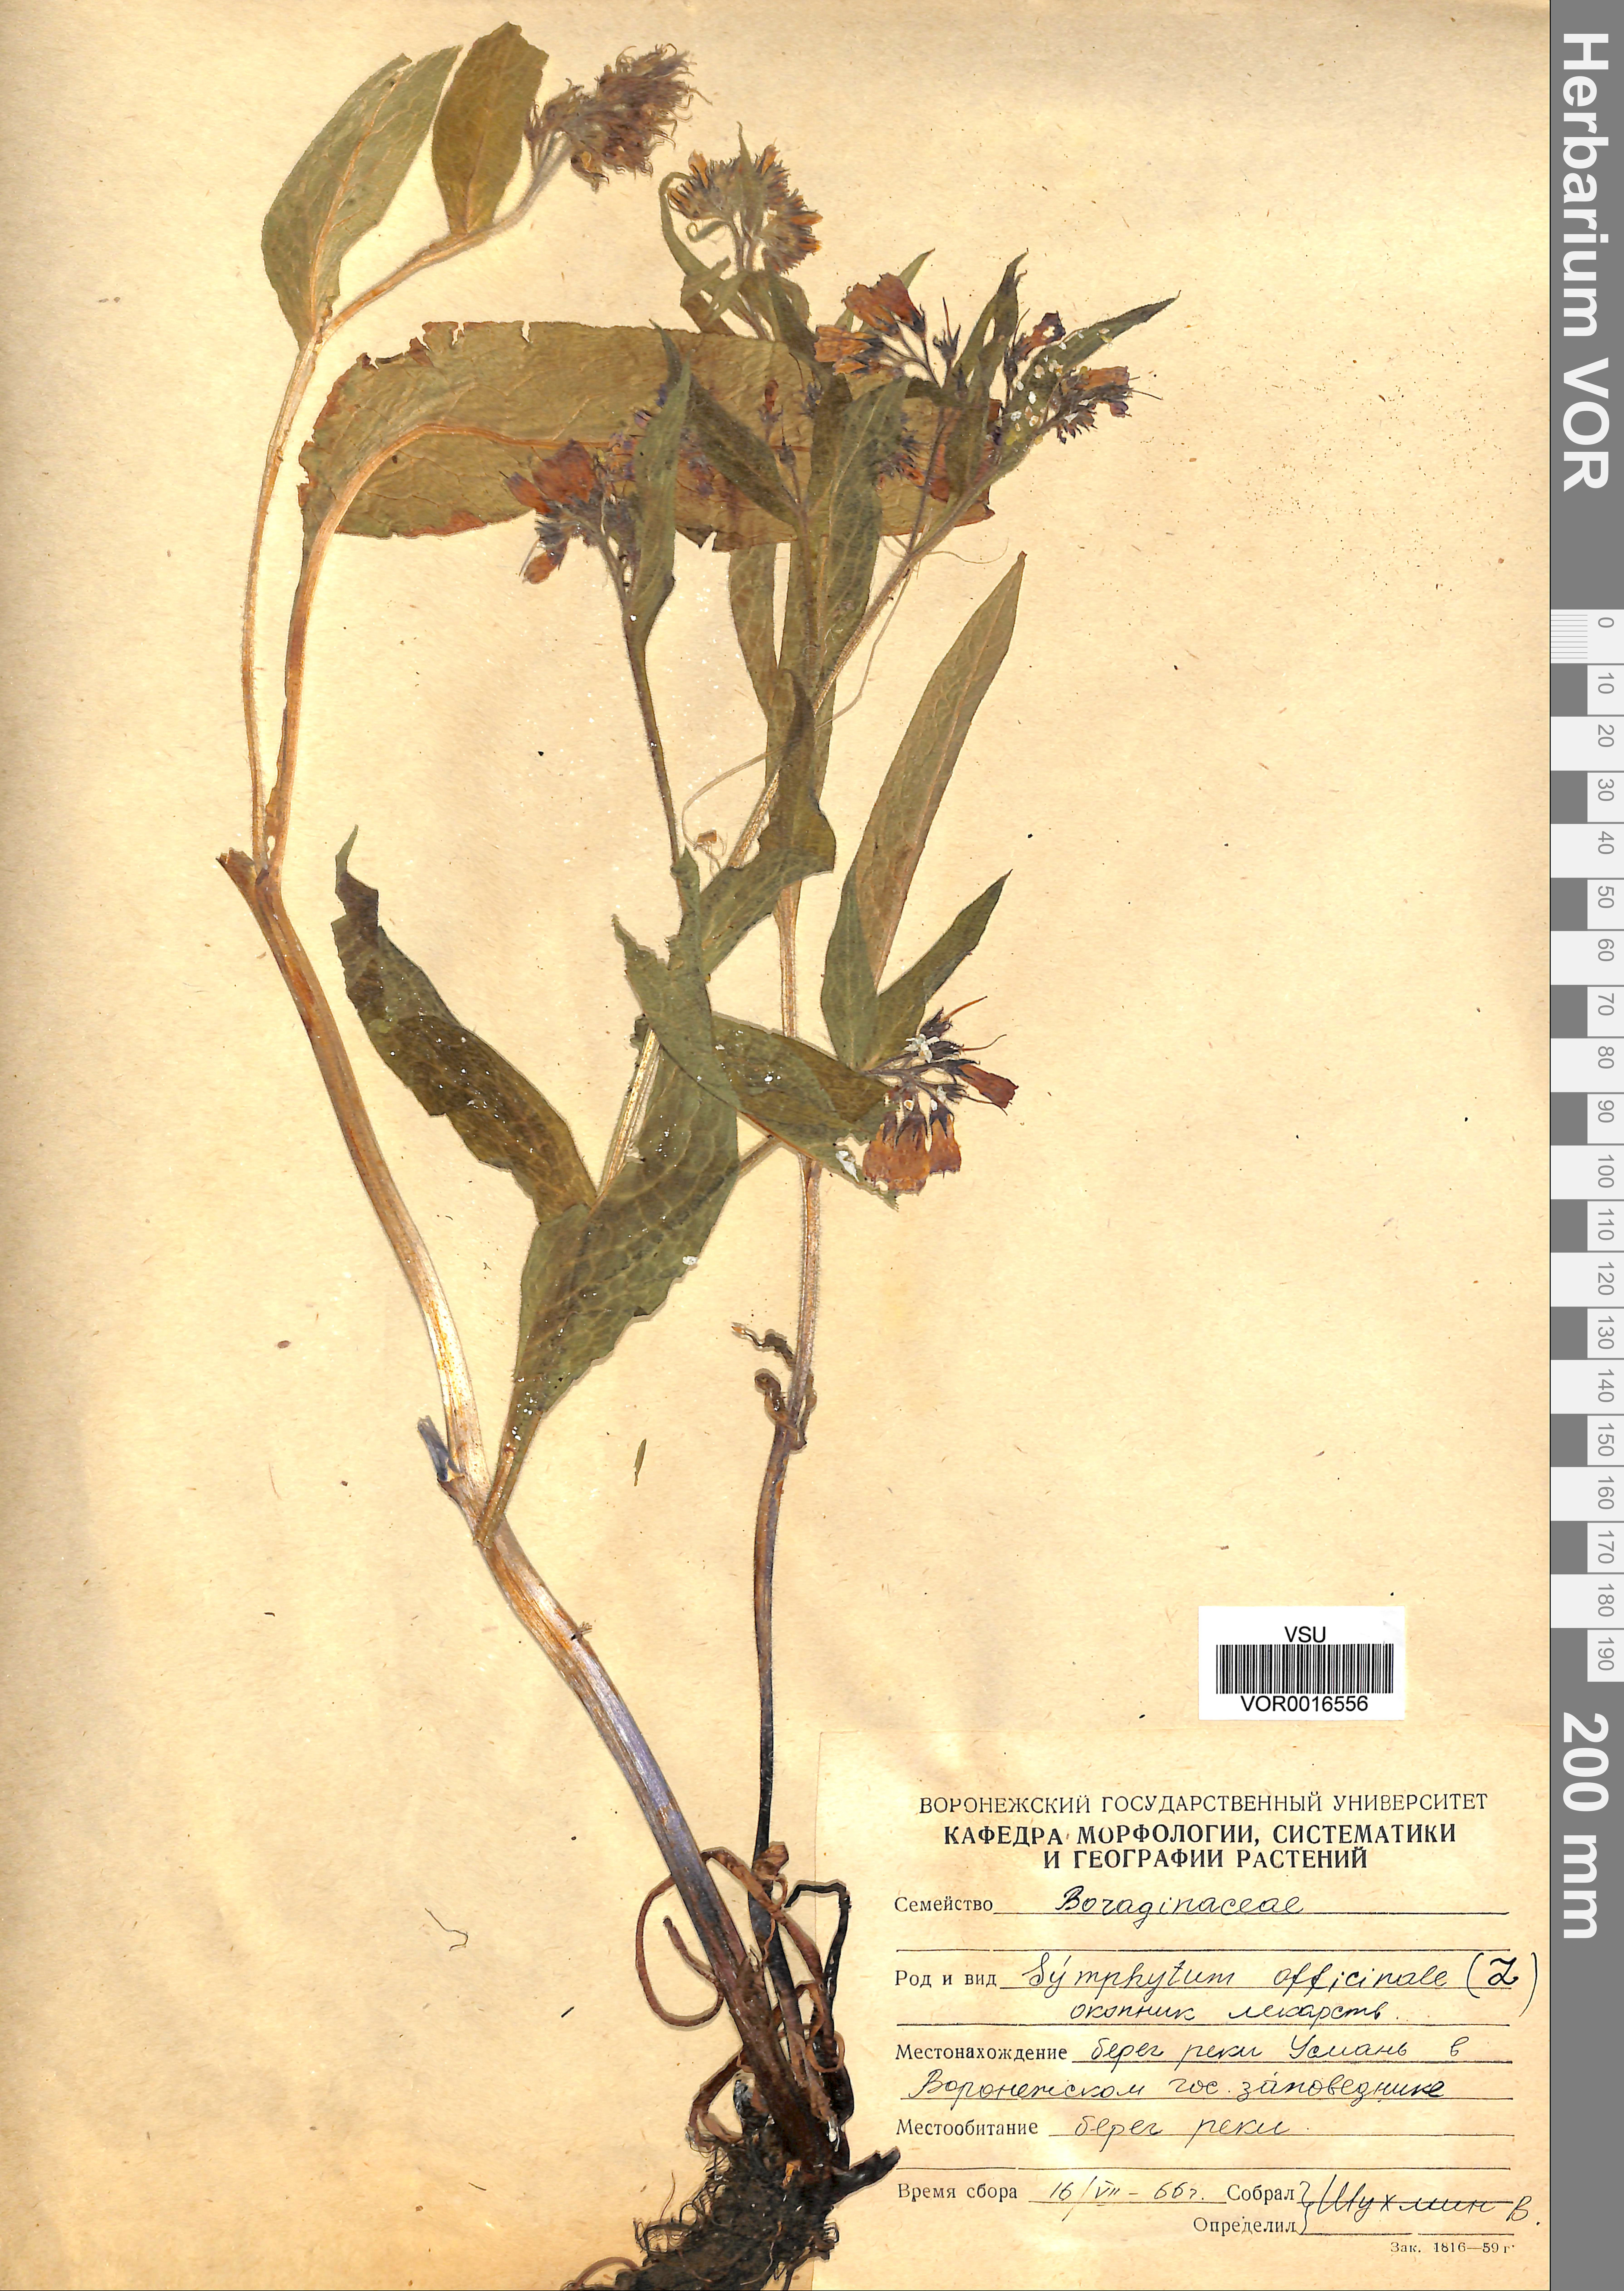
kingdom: Plantae
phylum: Tracheophyta
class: Magnoliopsida
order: Boraginales
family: Boraginaceae
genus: Symphytum
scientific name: Symphytum officinale
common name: Common comfrey
